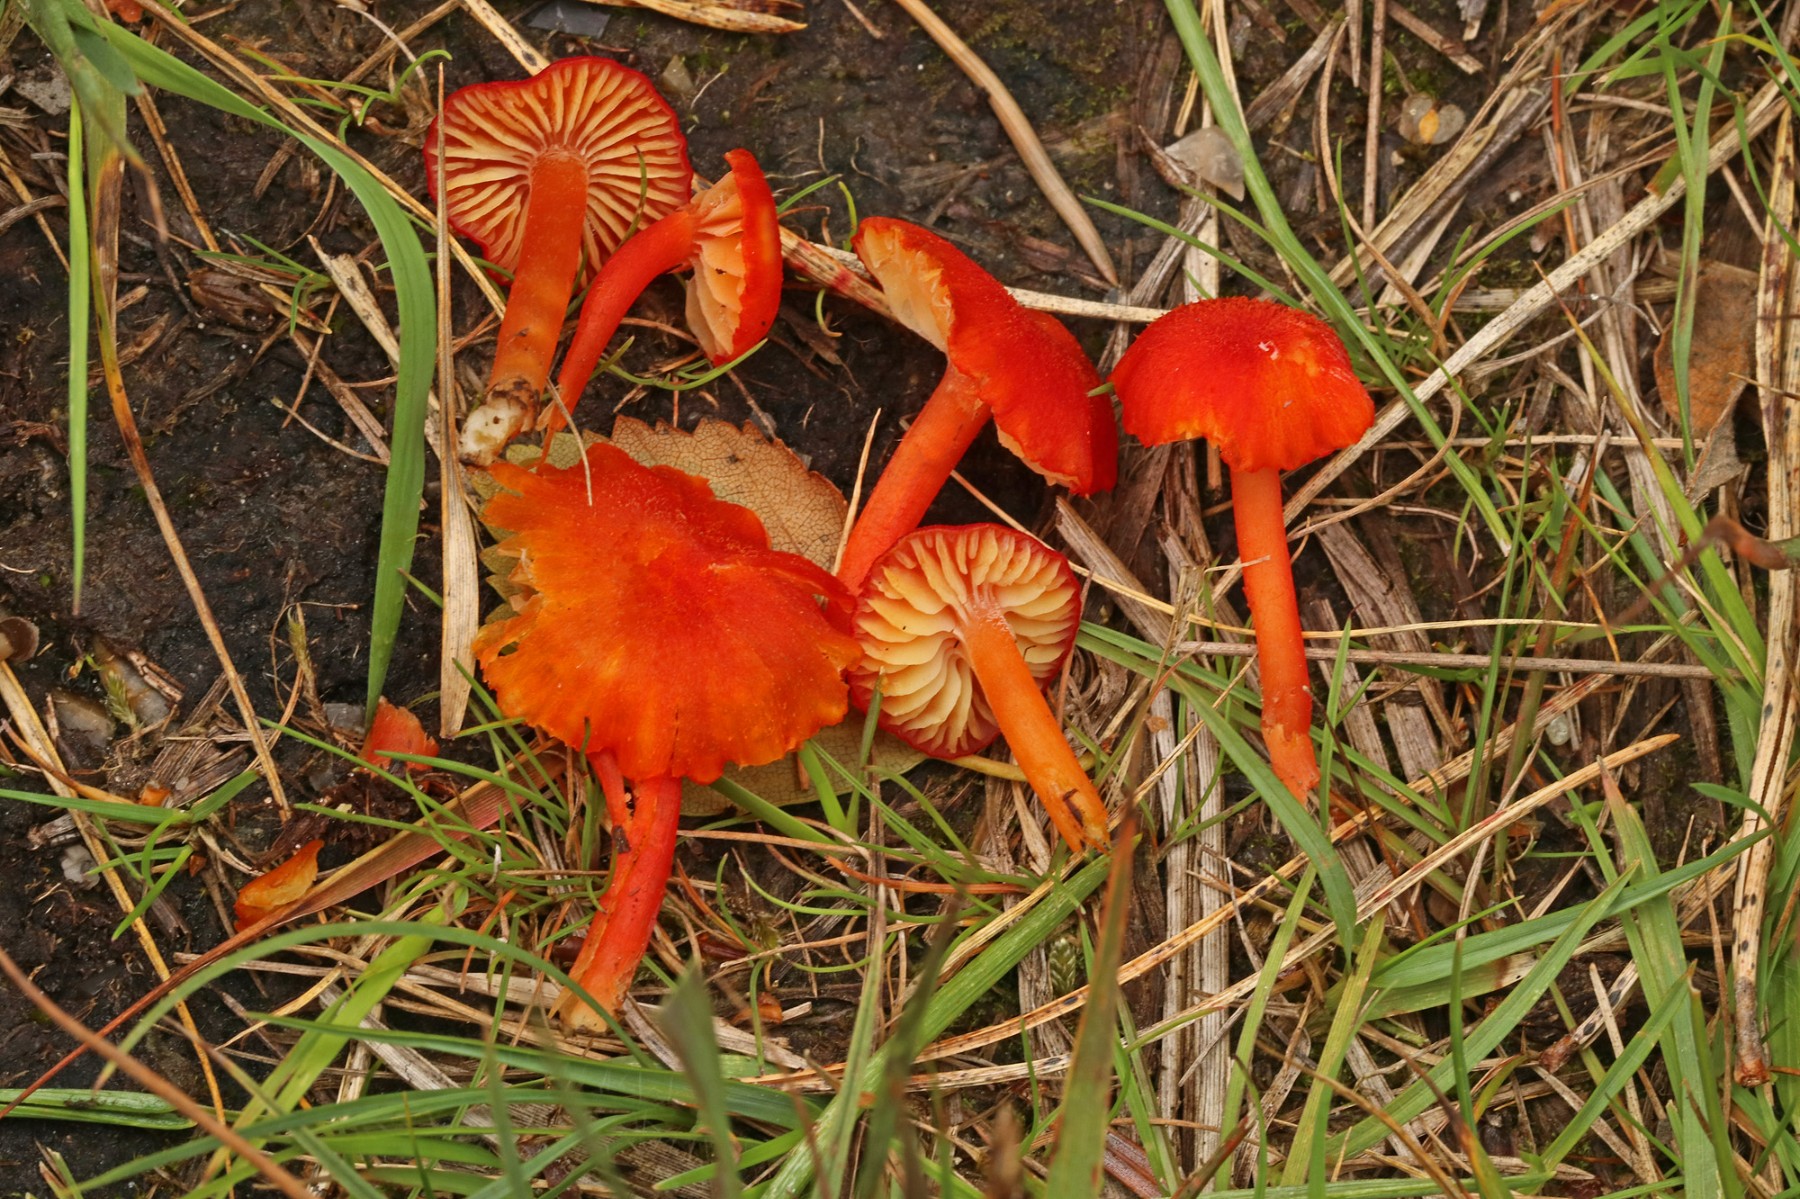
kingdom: Fungi
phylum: Basidiomycota
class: Agaricomycetes
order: Agaricales
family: Hygrophoraceae
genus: Hygrocybe
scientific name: Hygrocybe helobia
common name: hvidløgs-vokshat
